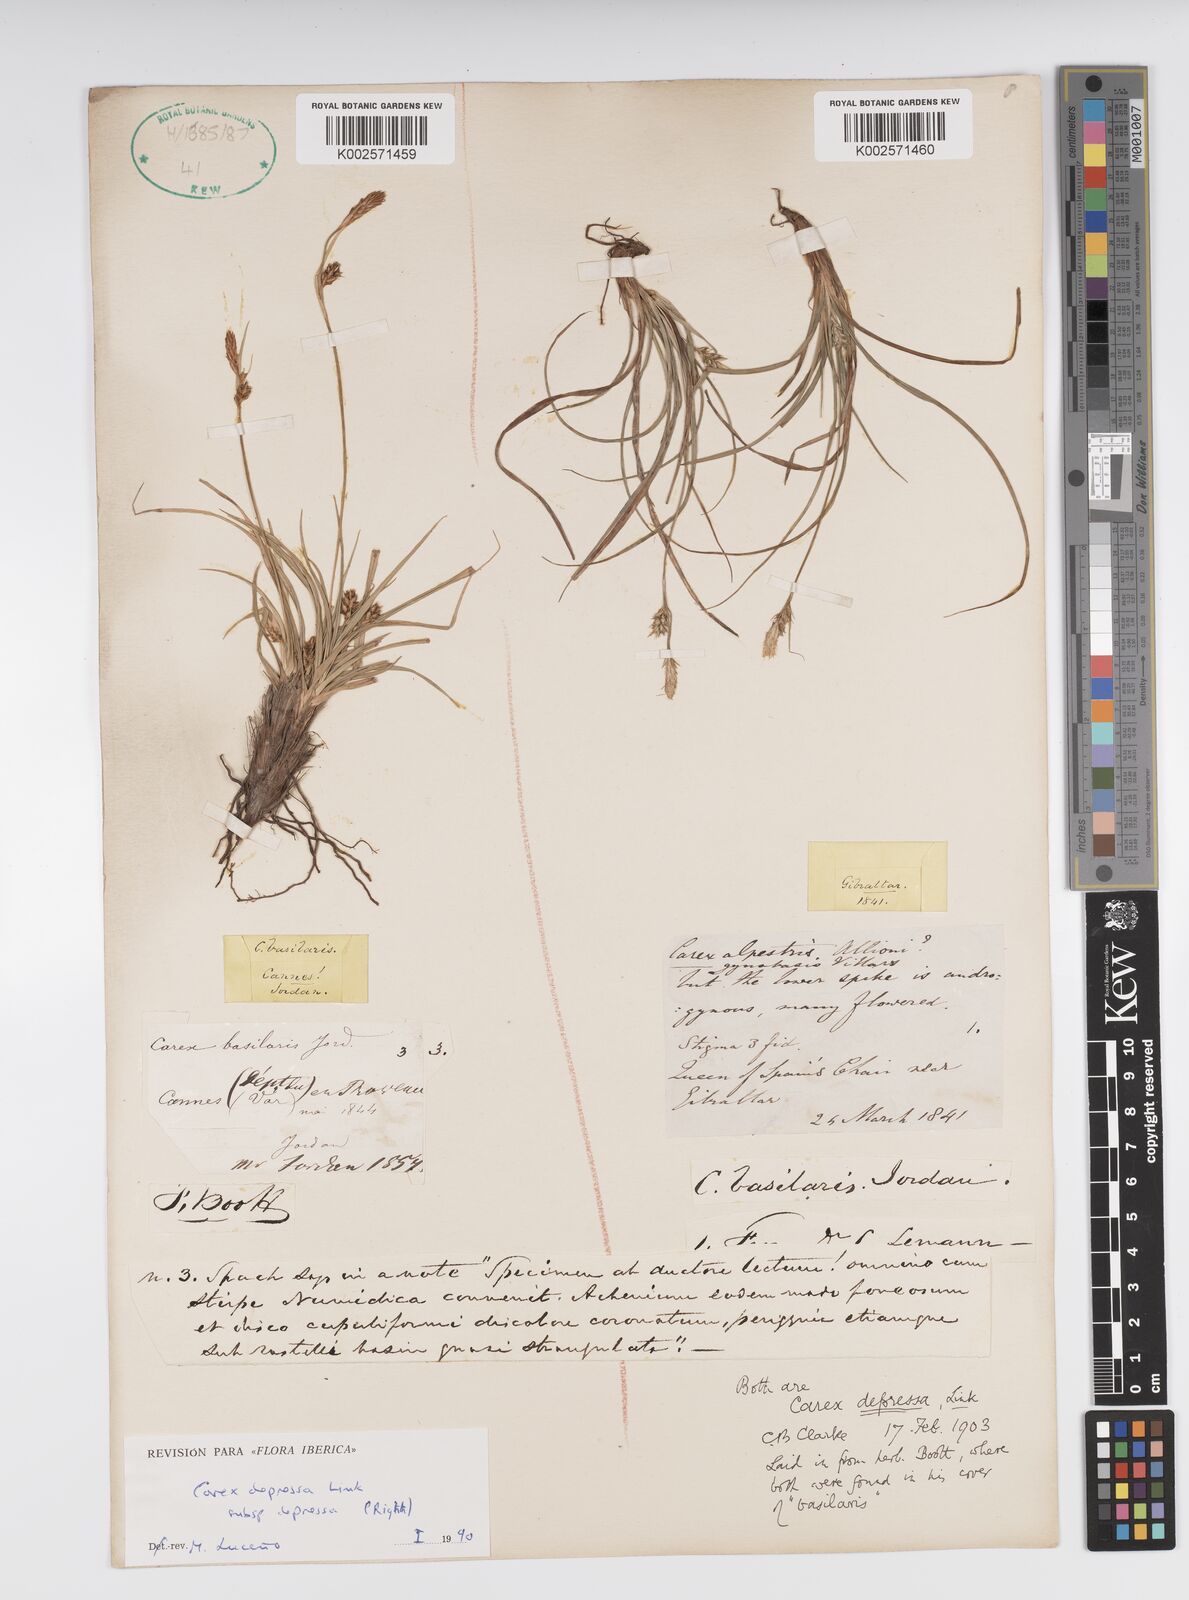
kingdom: Plantae
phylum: Tracheophyta
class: Liliopsida
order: Poales
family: Cyperaceae
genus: Carex
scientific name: Carex depressa
